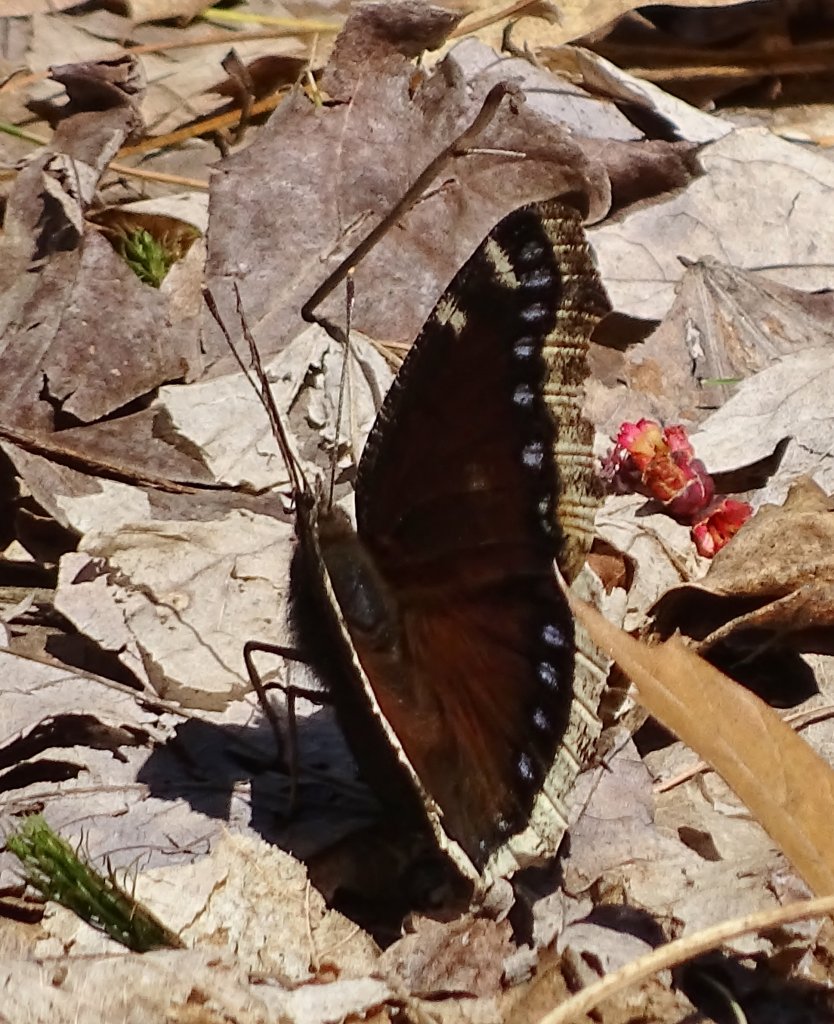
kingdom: Animalia
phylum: Arthropoda
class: Insecta
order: Lepidoptera
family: Nymphalidae
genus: Nymphalis
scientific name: Nymphalis antiopa
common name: Mourning Cloak
